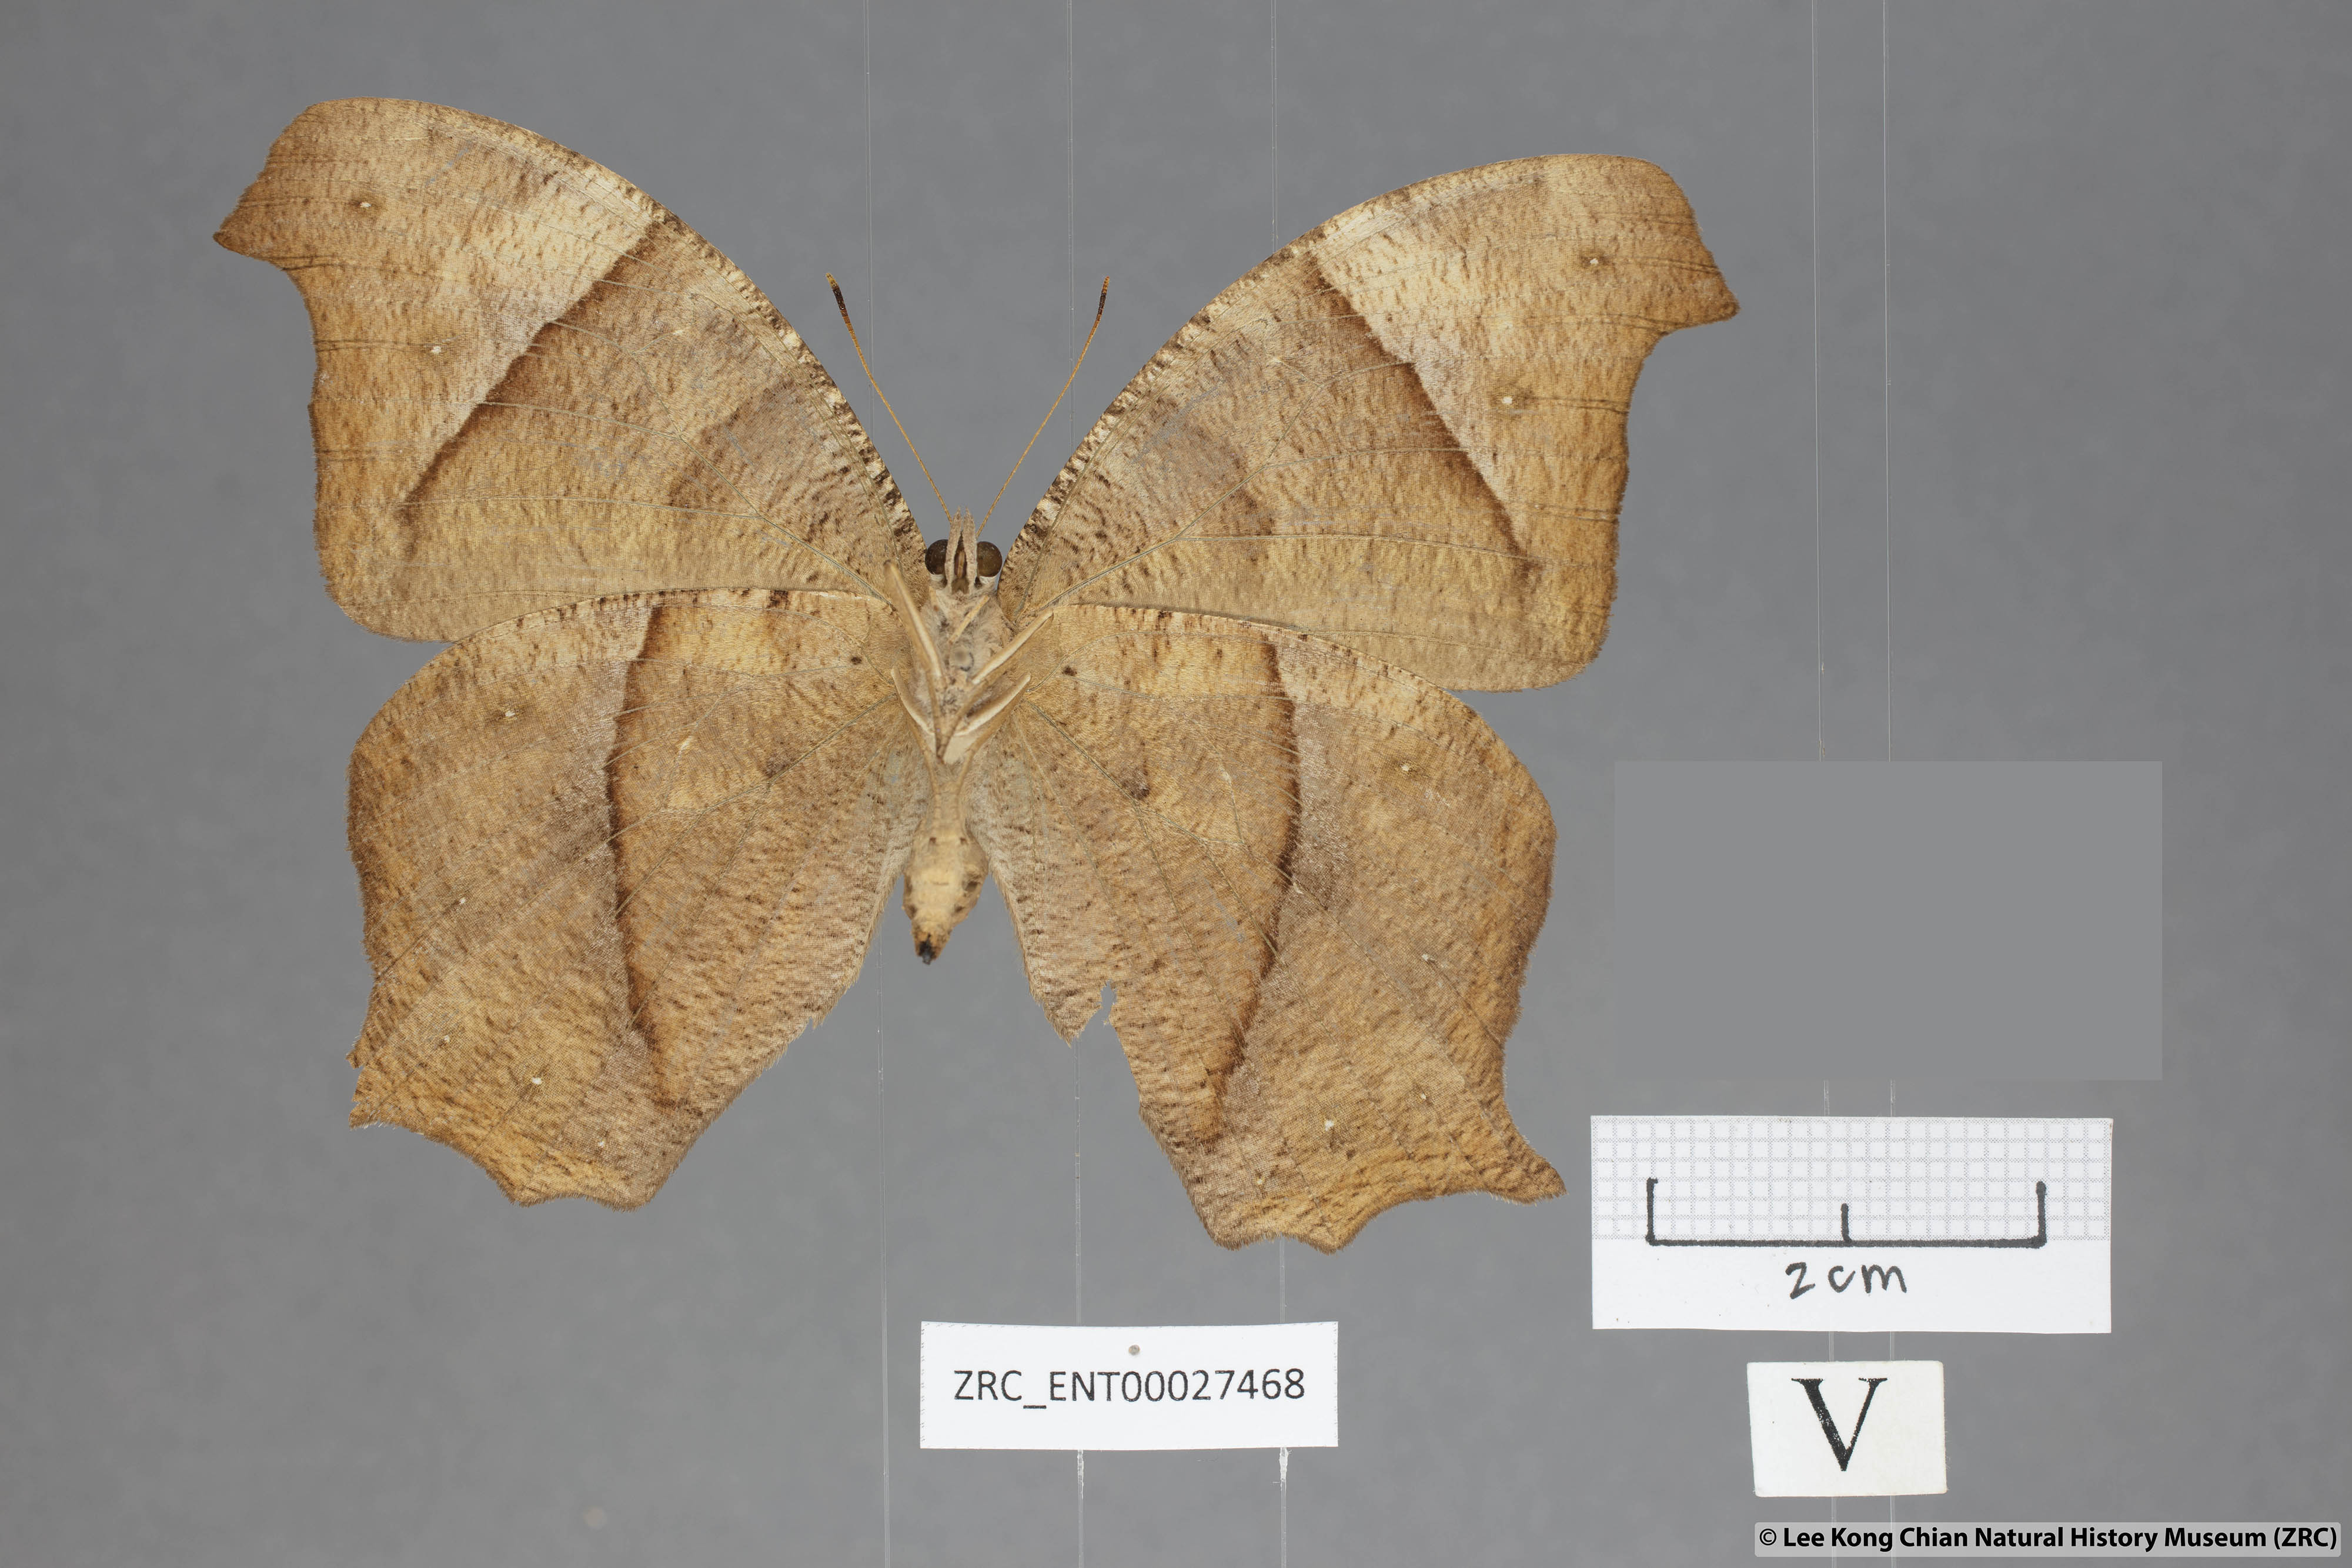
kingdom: Animalia
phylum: Arthropoda
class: Insecta
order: Lepidoptera
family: Nymphalidae
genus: Melanitis
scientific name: Melanitis zitenius
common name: Great evening brown
